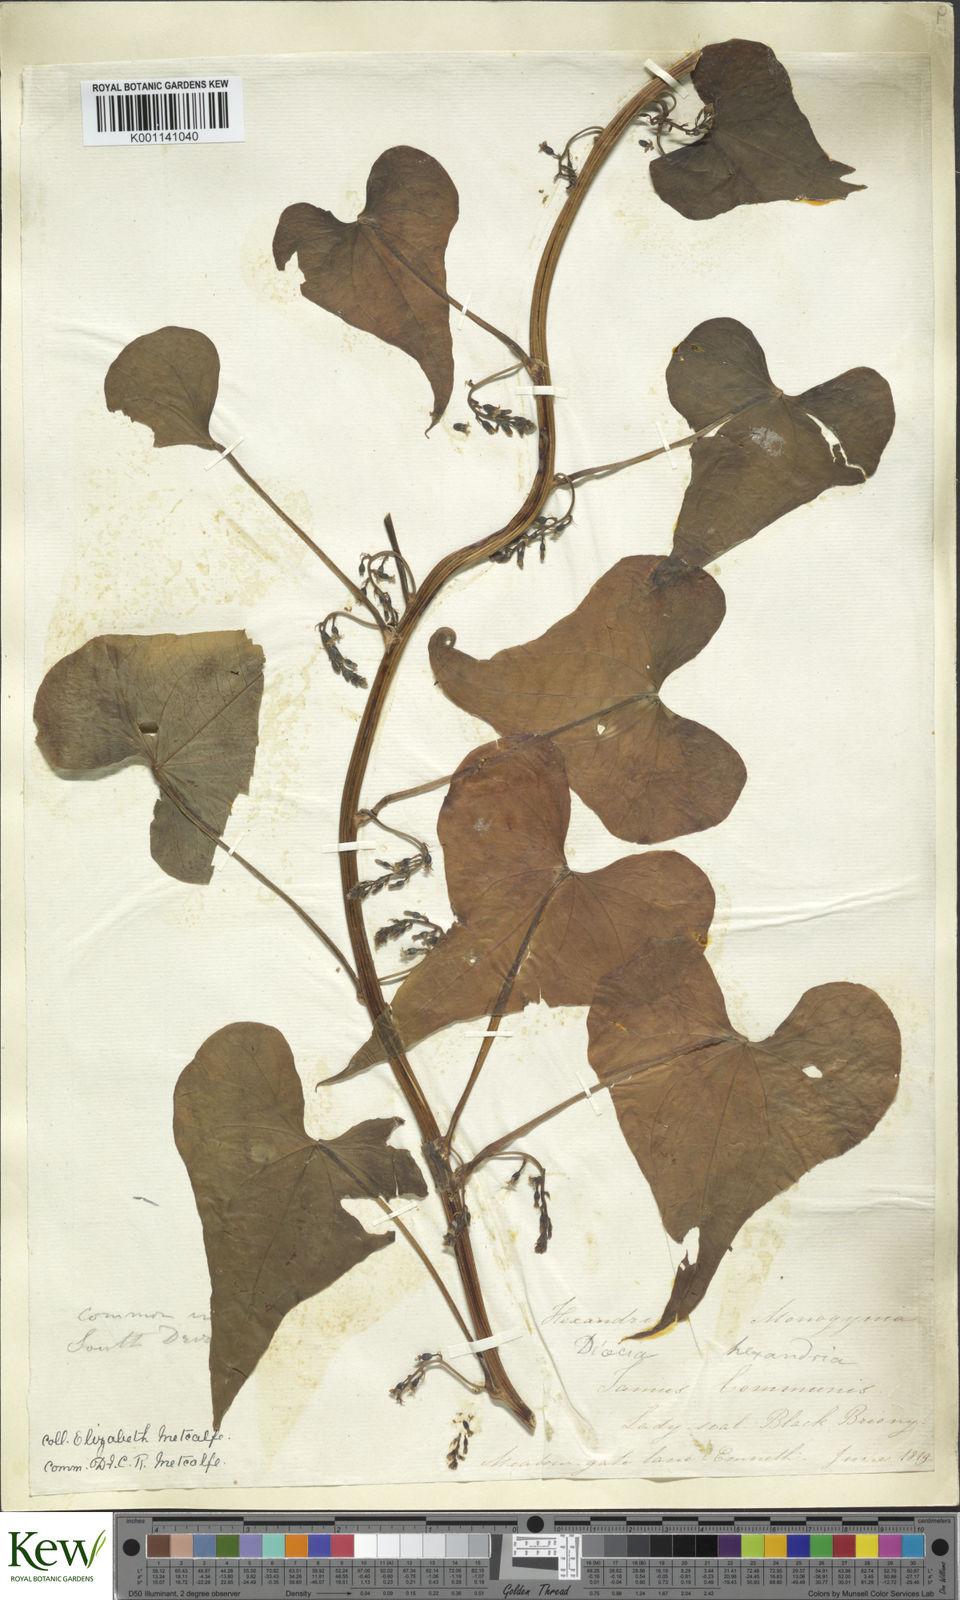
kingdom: Plantae
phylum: Tracheophyta
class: Liliopsida
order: Dioscoreales
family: Dioscoreaceae
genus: Dioscorea
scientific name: Dioscorea communis
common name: Black-bindweed
